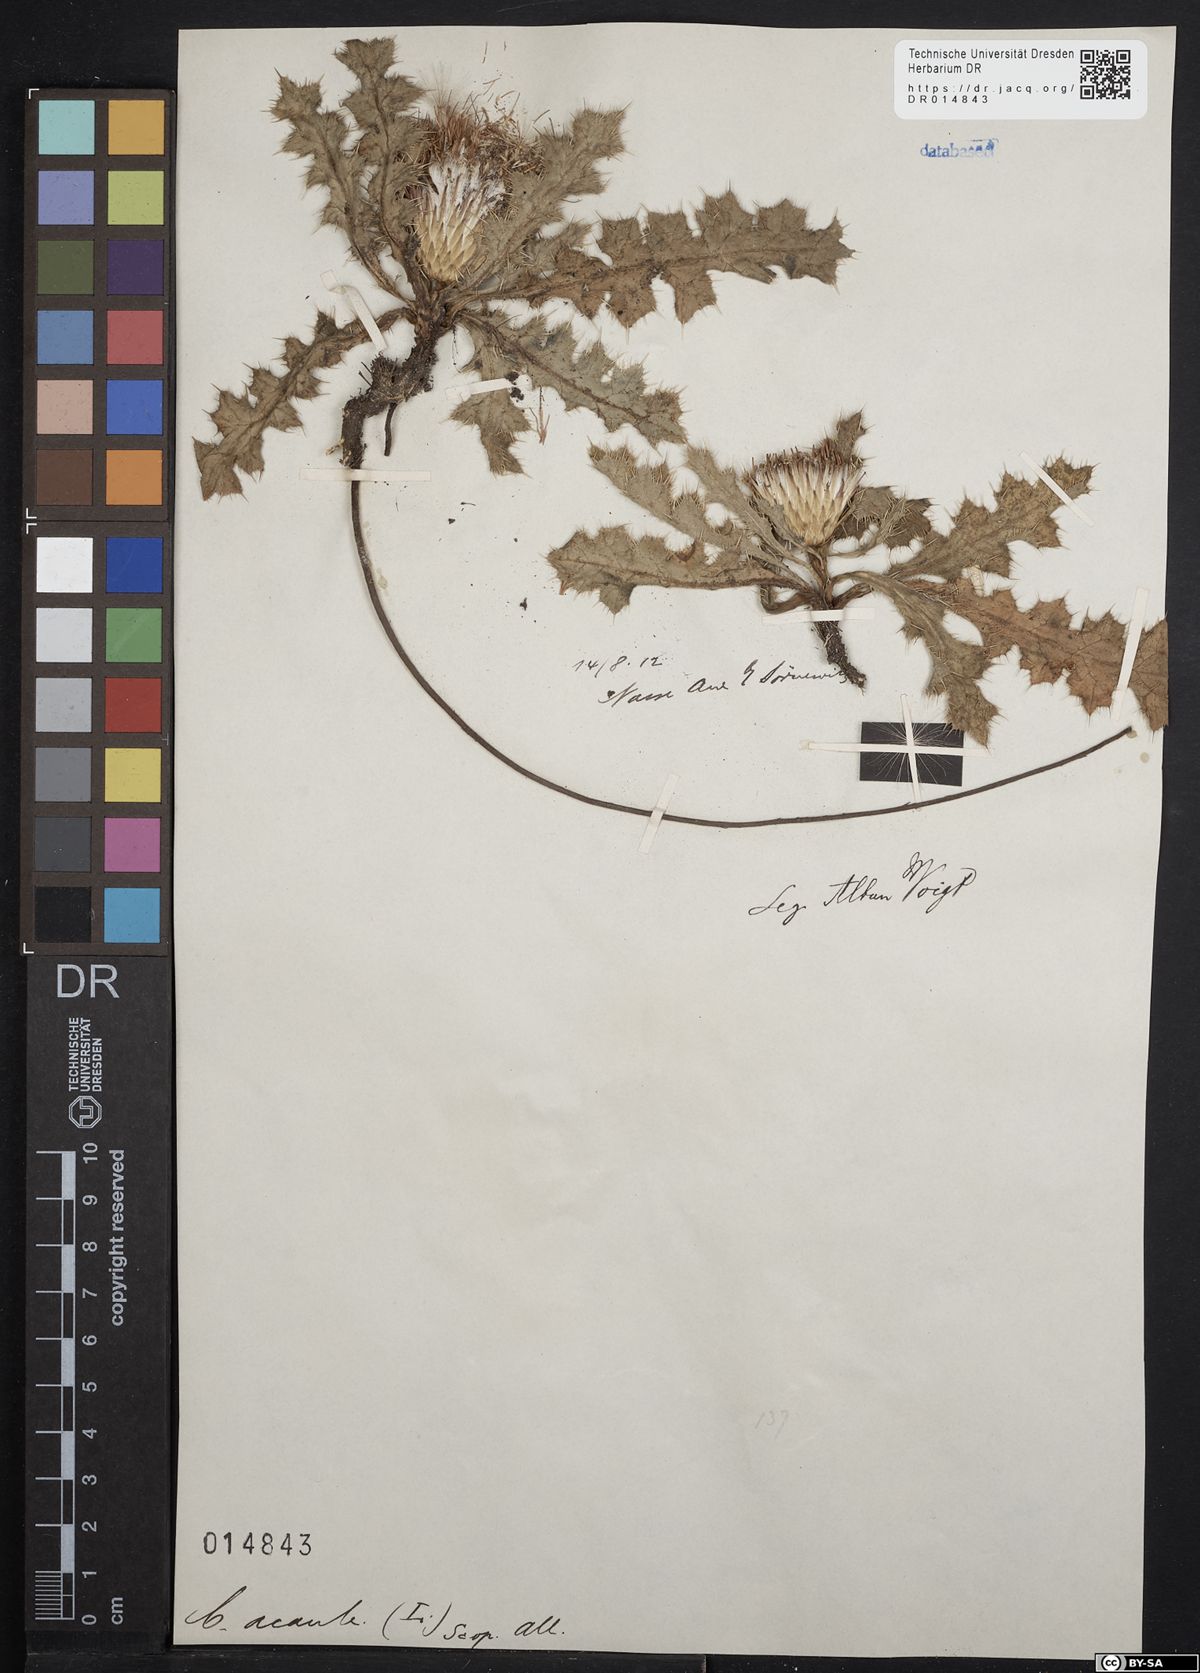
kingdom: Plantae
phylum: Tracheophyta
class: Magnoliopsida
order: Asterales
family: Asteraceae
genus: Cirsium
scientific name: Cirsium acaule
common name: Dwarf thistle
